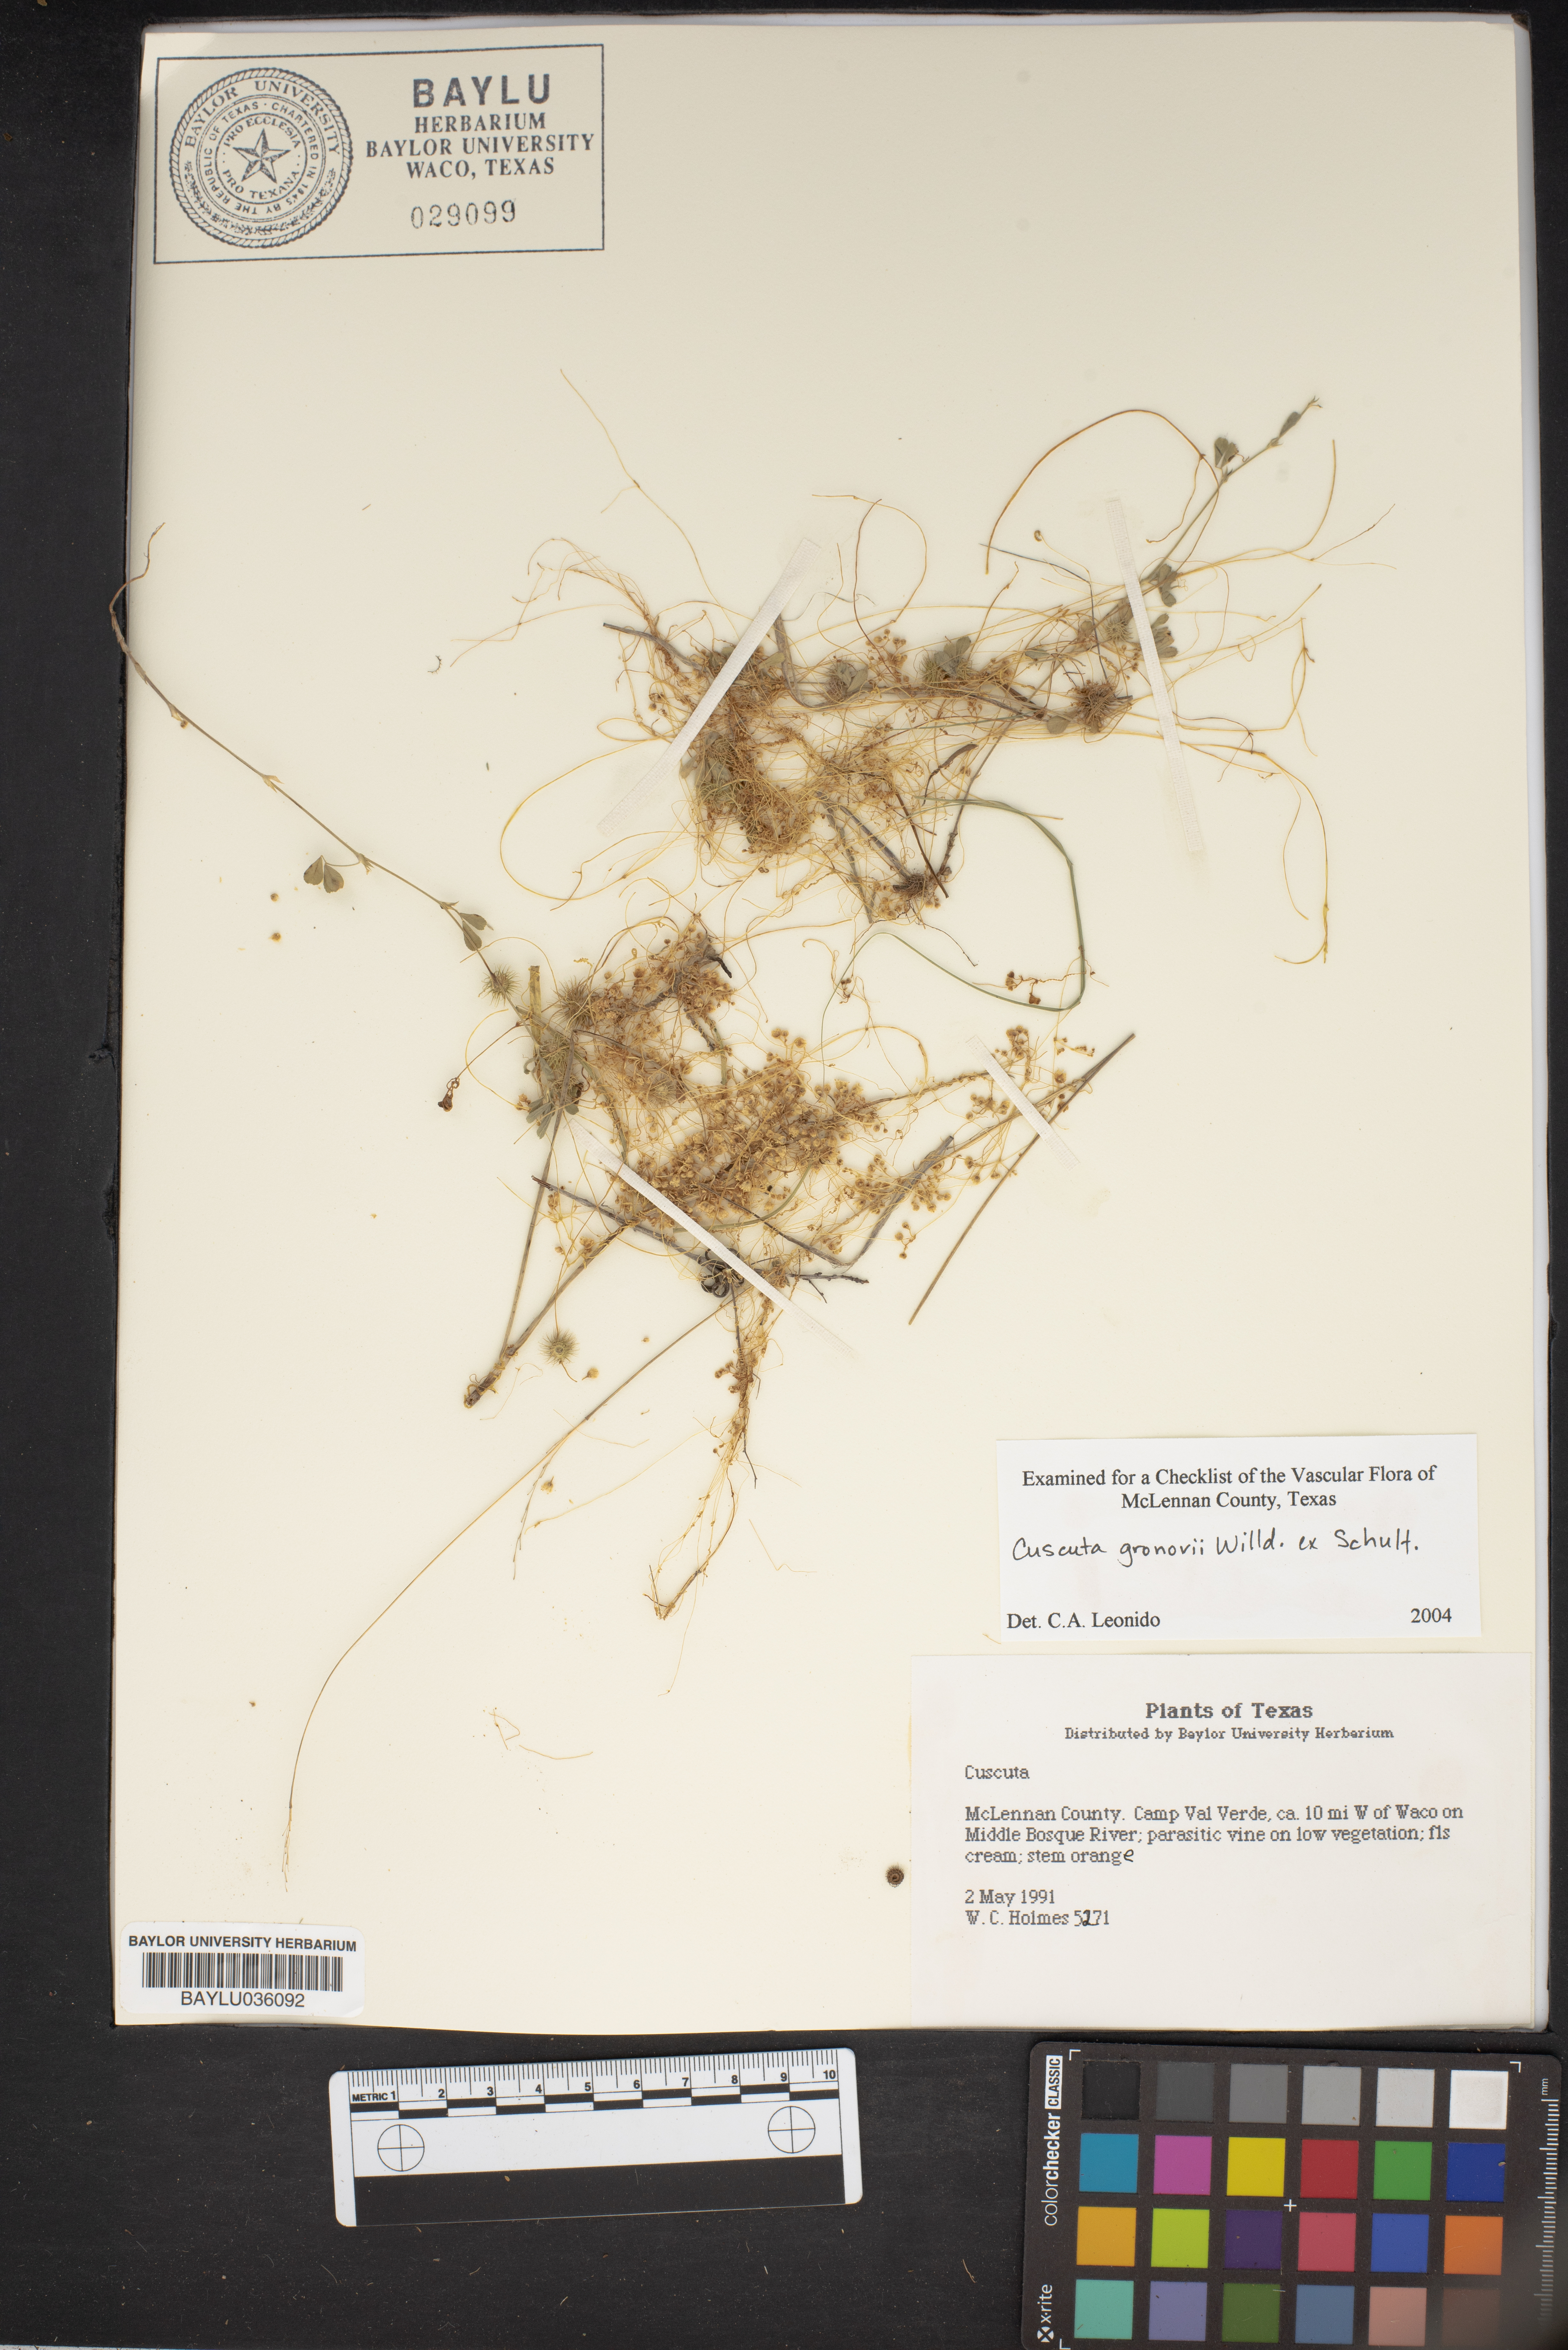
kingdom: Plantae
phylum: Tracheophyta
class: Magnoliopsida
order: Solanales
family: Convolvulaceae
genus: Cuscuta
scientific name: Cuscuta gronovii
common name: Common dodder
